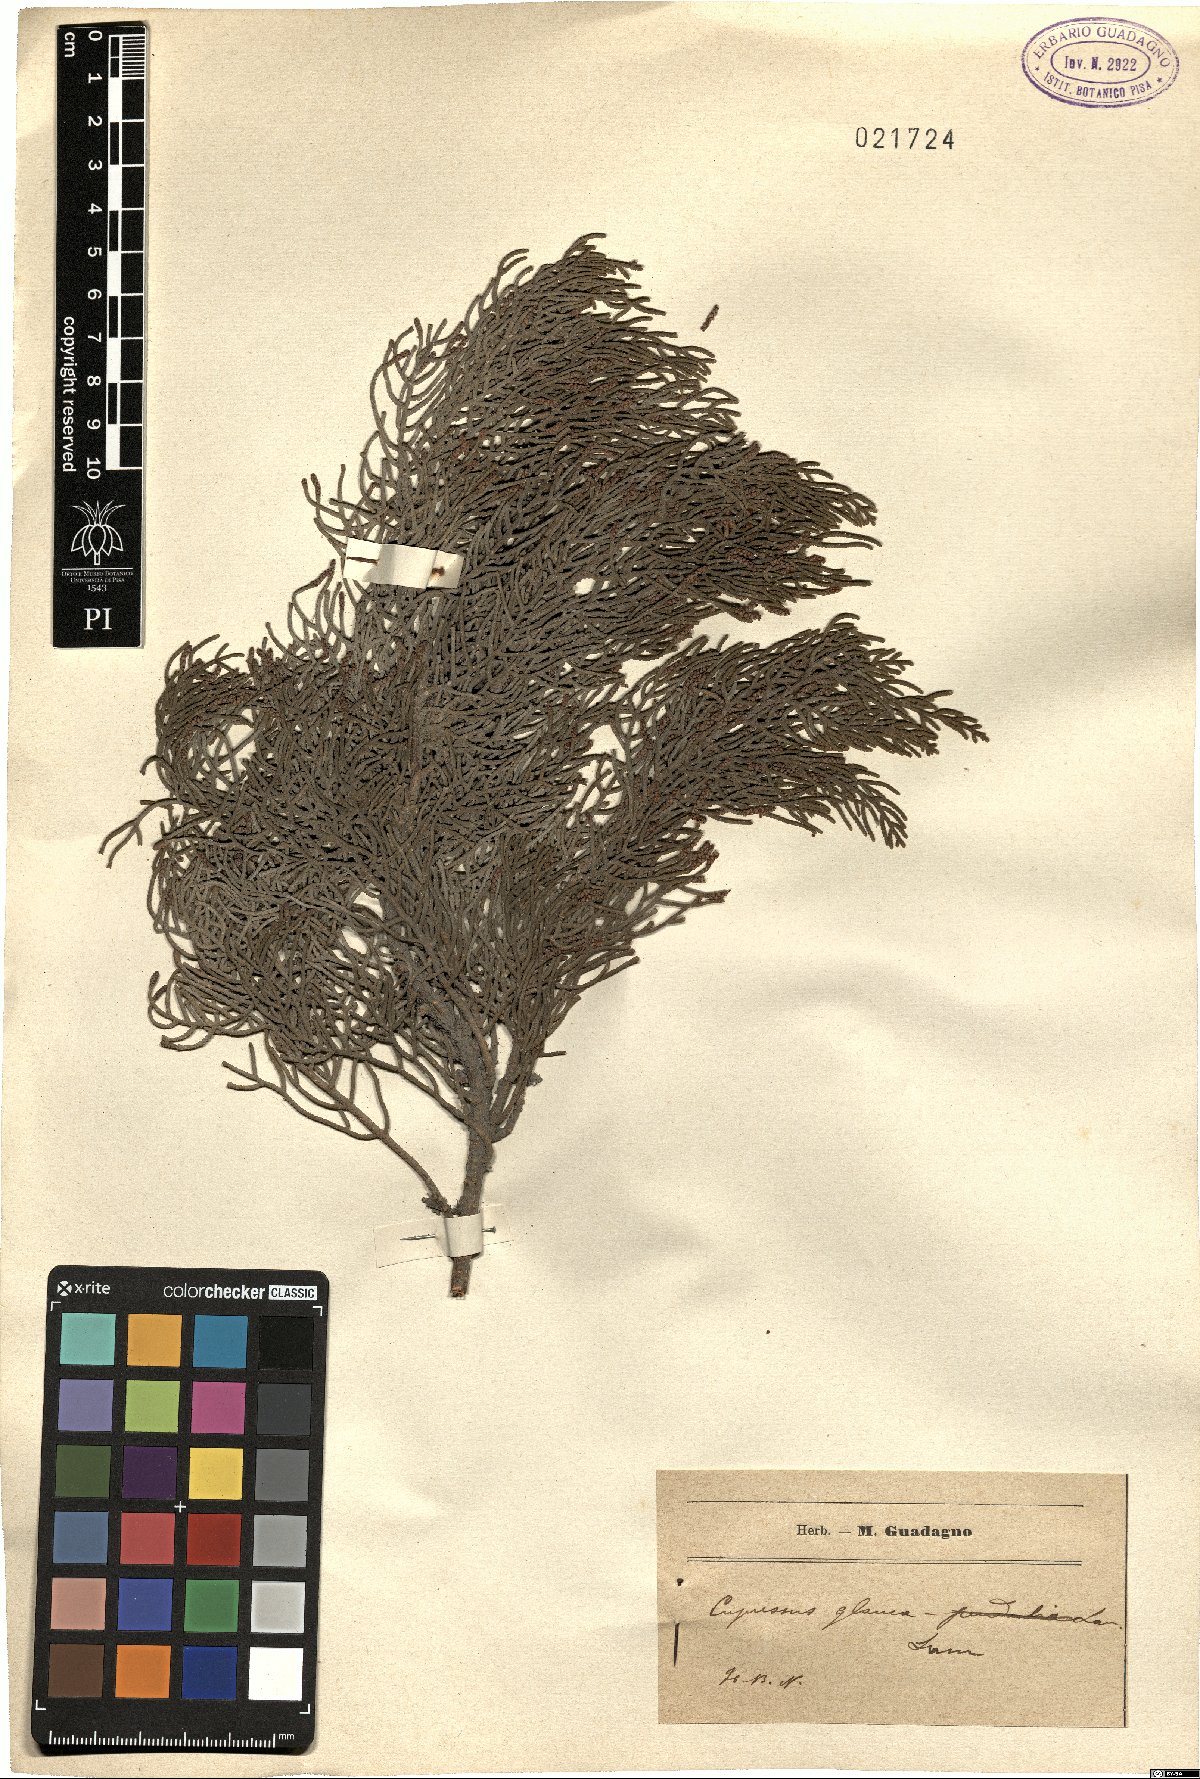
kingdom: Plantae
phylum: Tracheophyta
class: Pinopsida
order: Pinales
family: Cupressaceae
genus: Cupressus
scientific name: Cupressus
